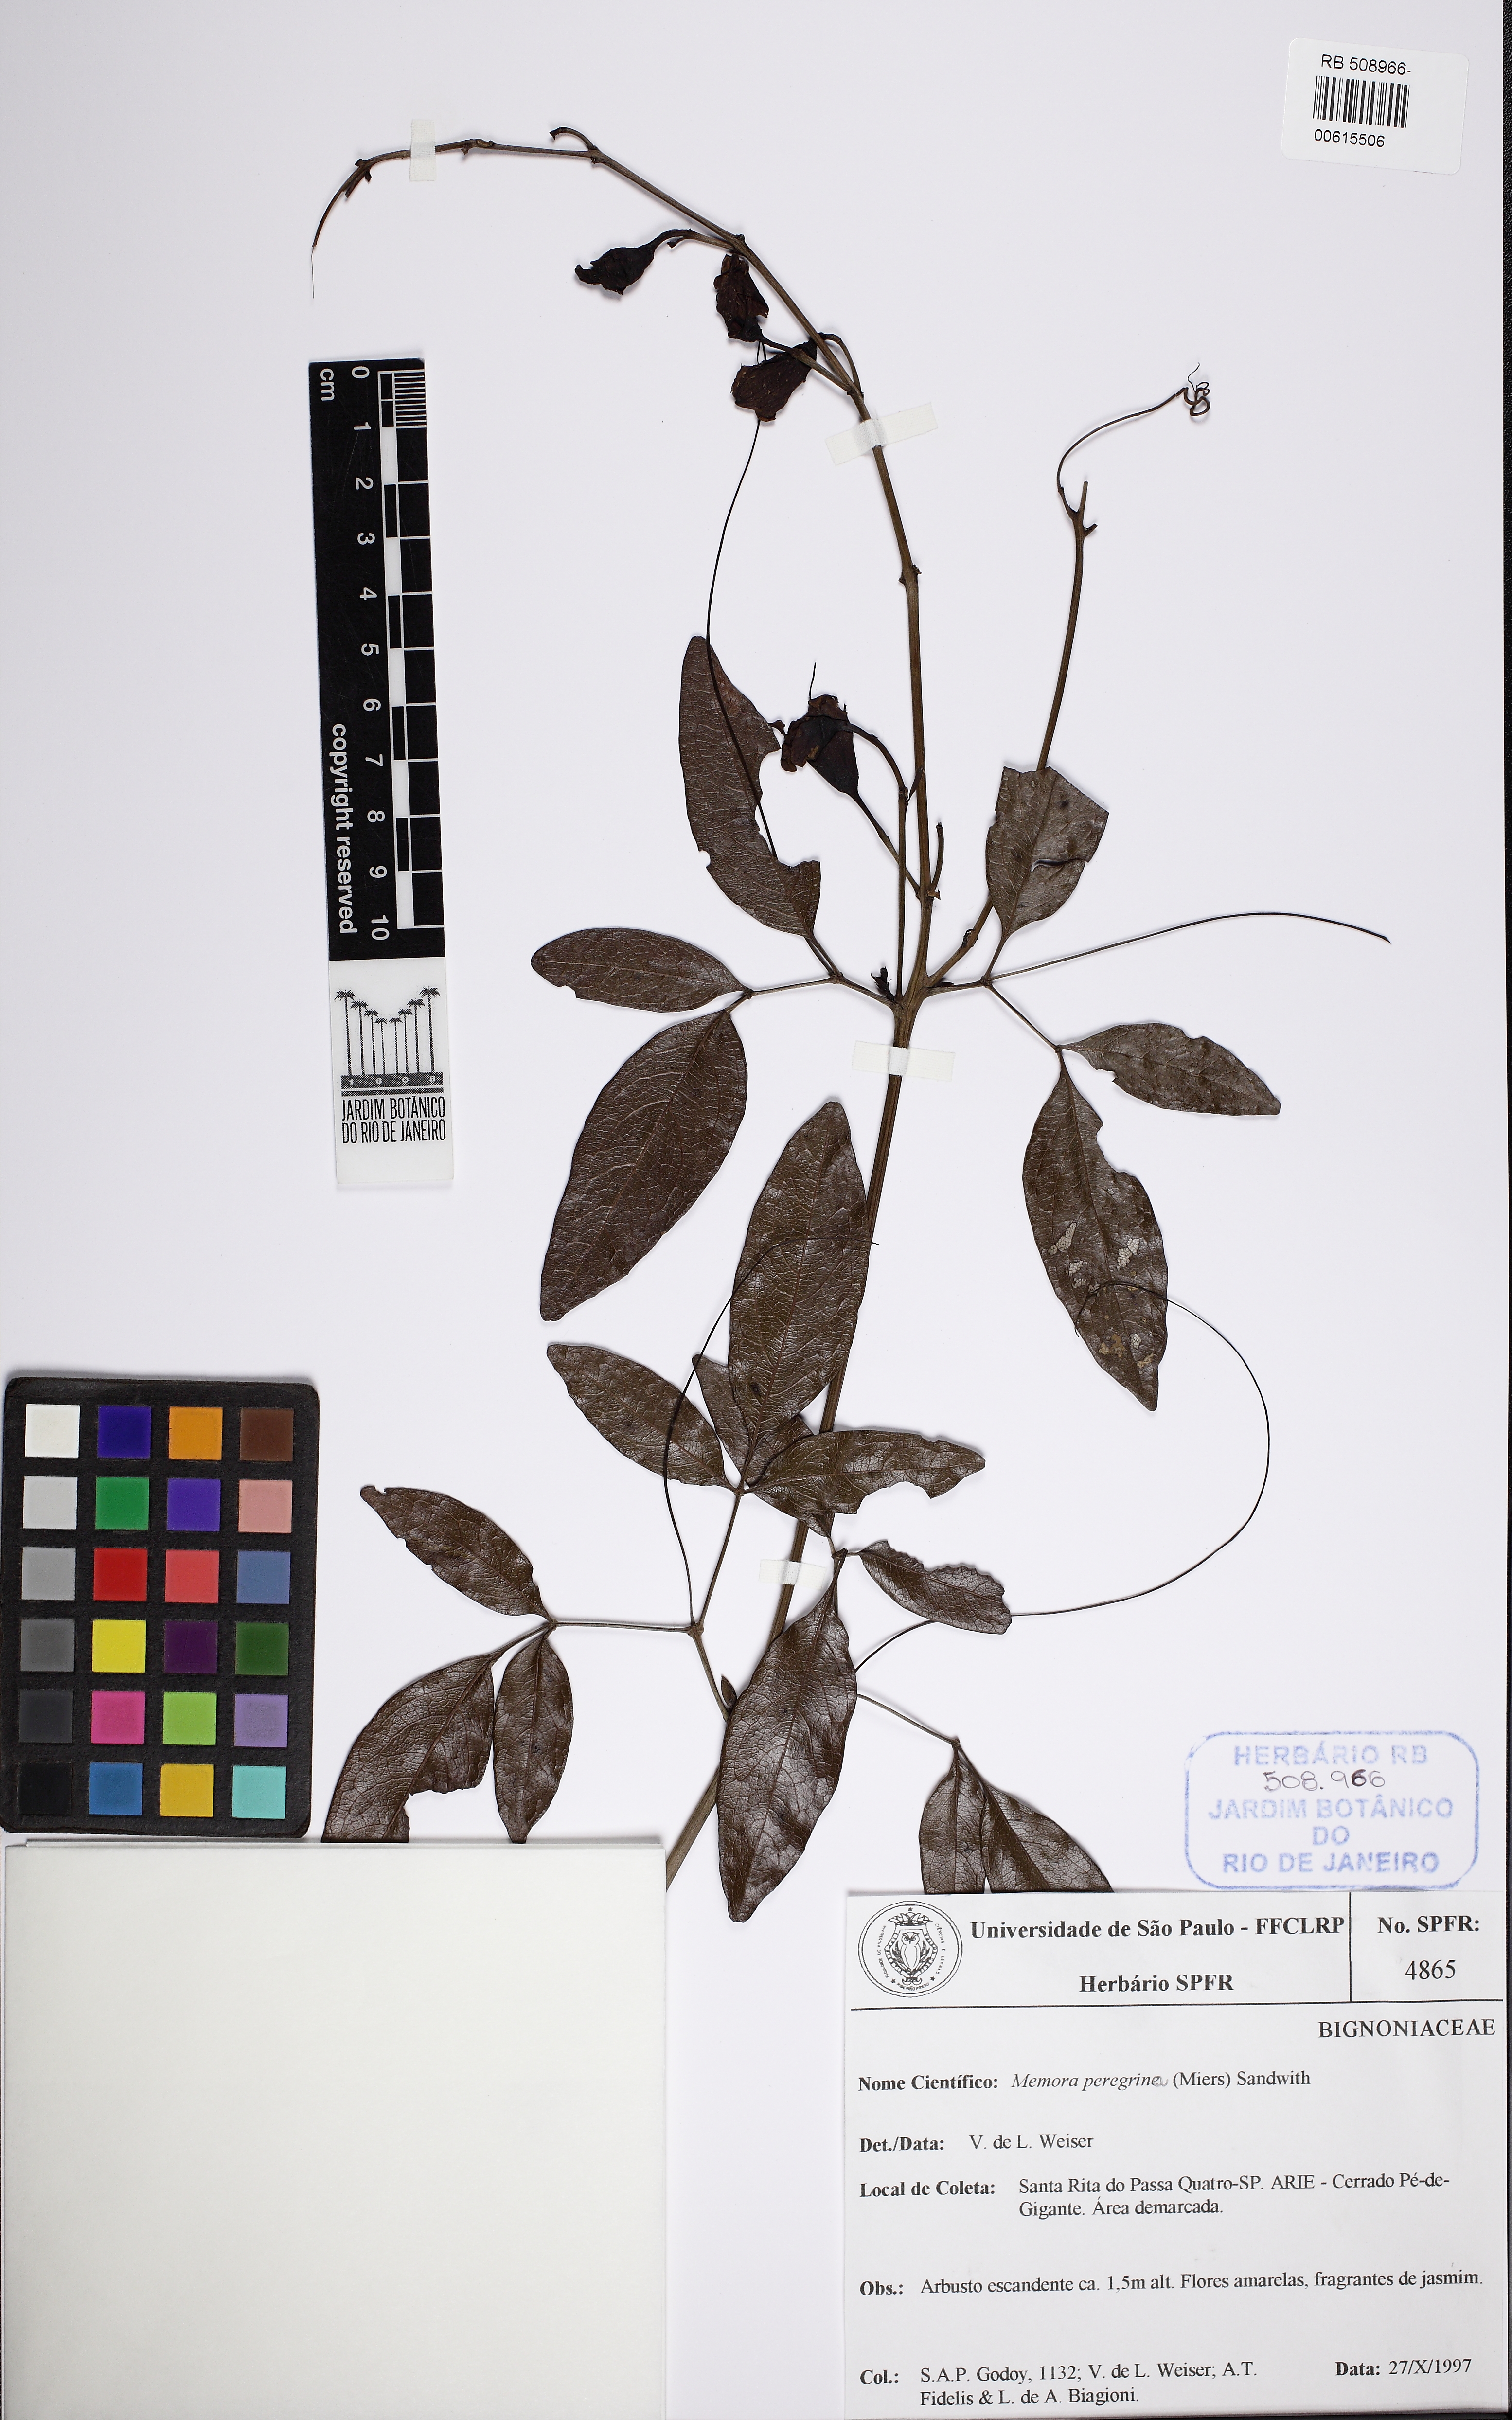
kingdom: Plantae
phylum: Tracheophyta
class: Magnoliopsida
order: Lamiales
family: Bignoniaceae
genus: Adenocalymma
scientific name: Adenocalymma peregrinum
